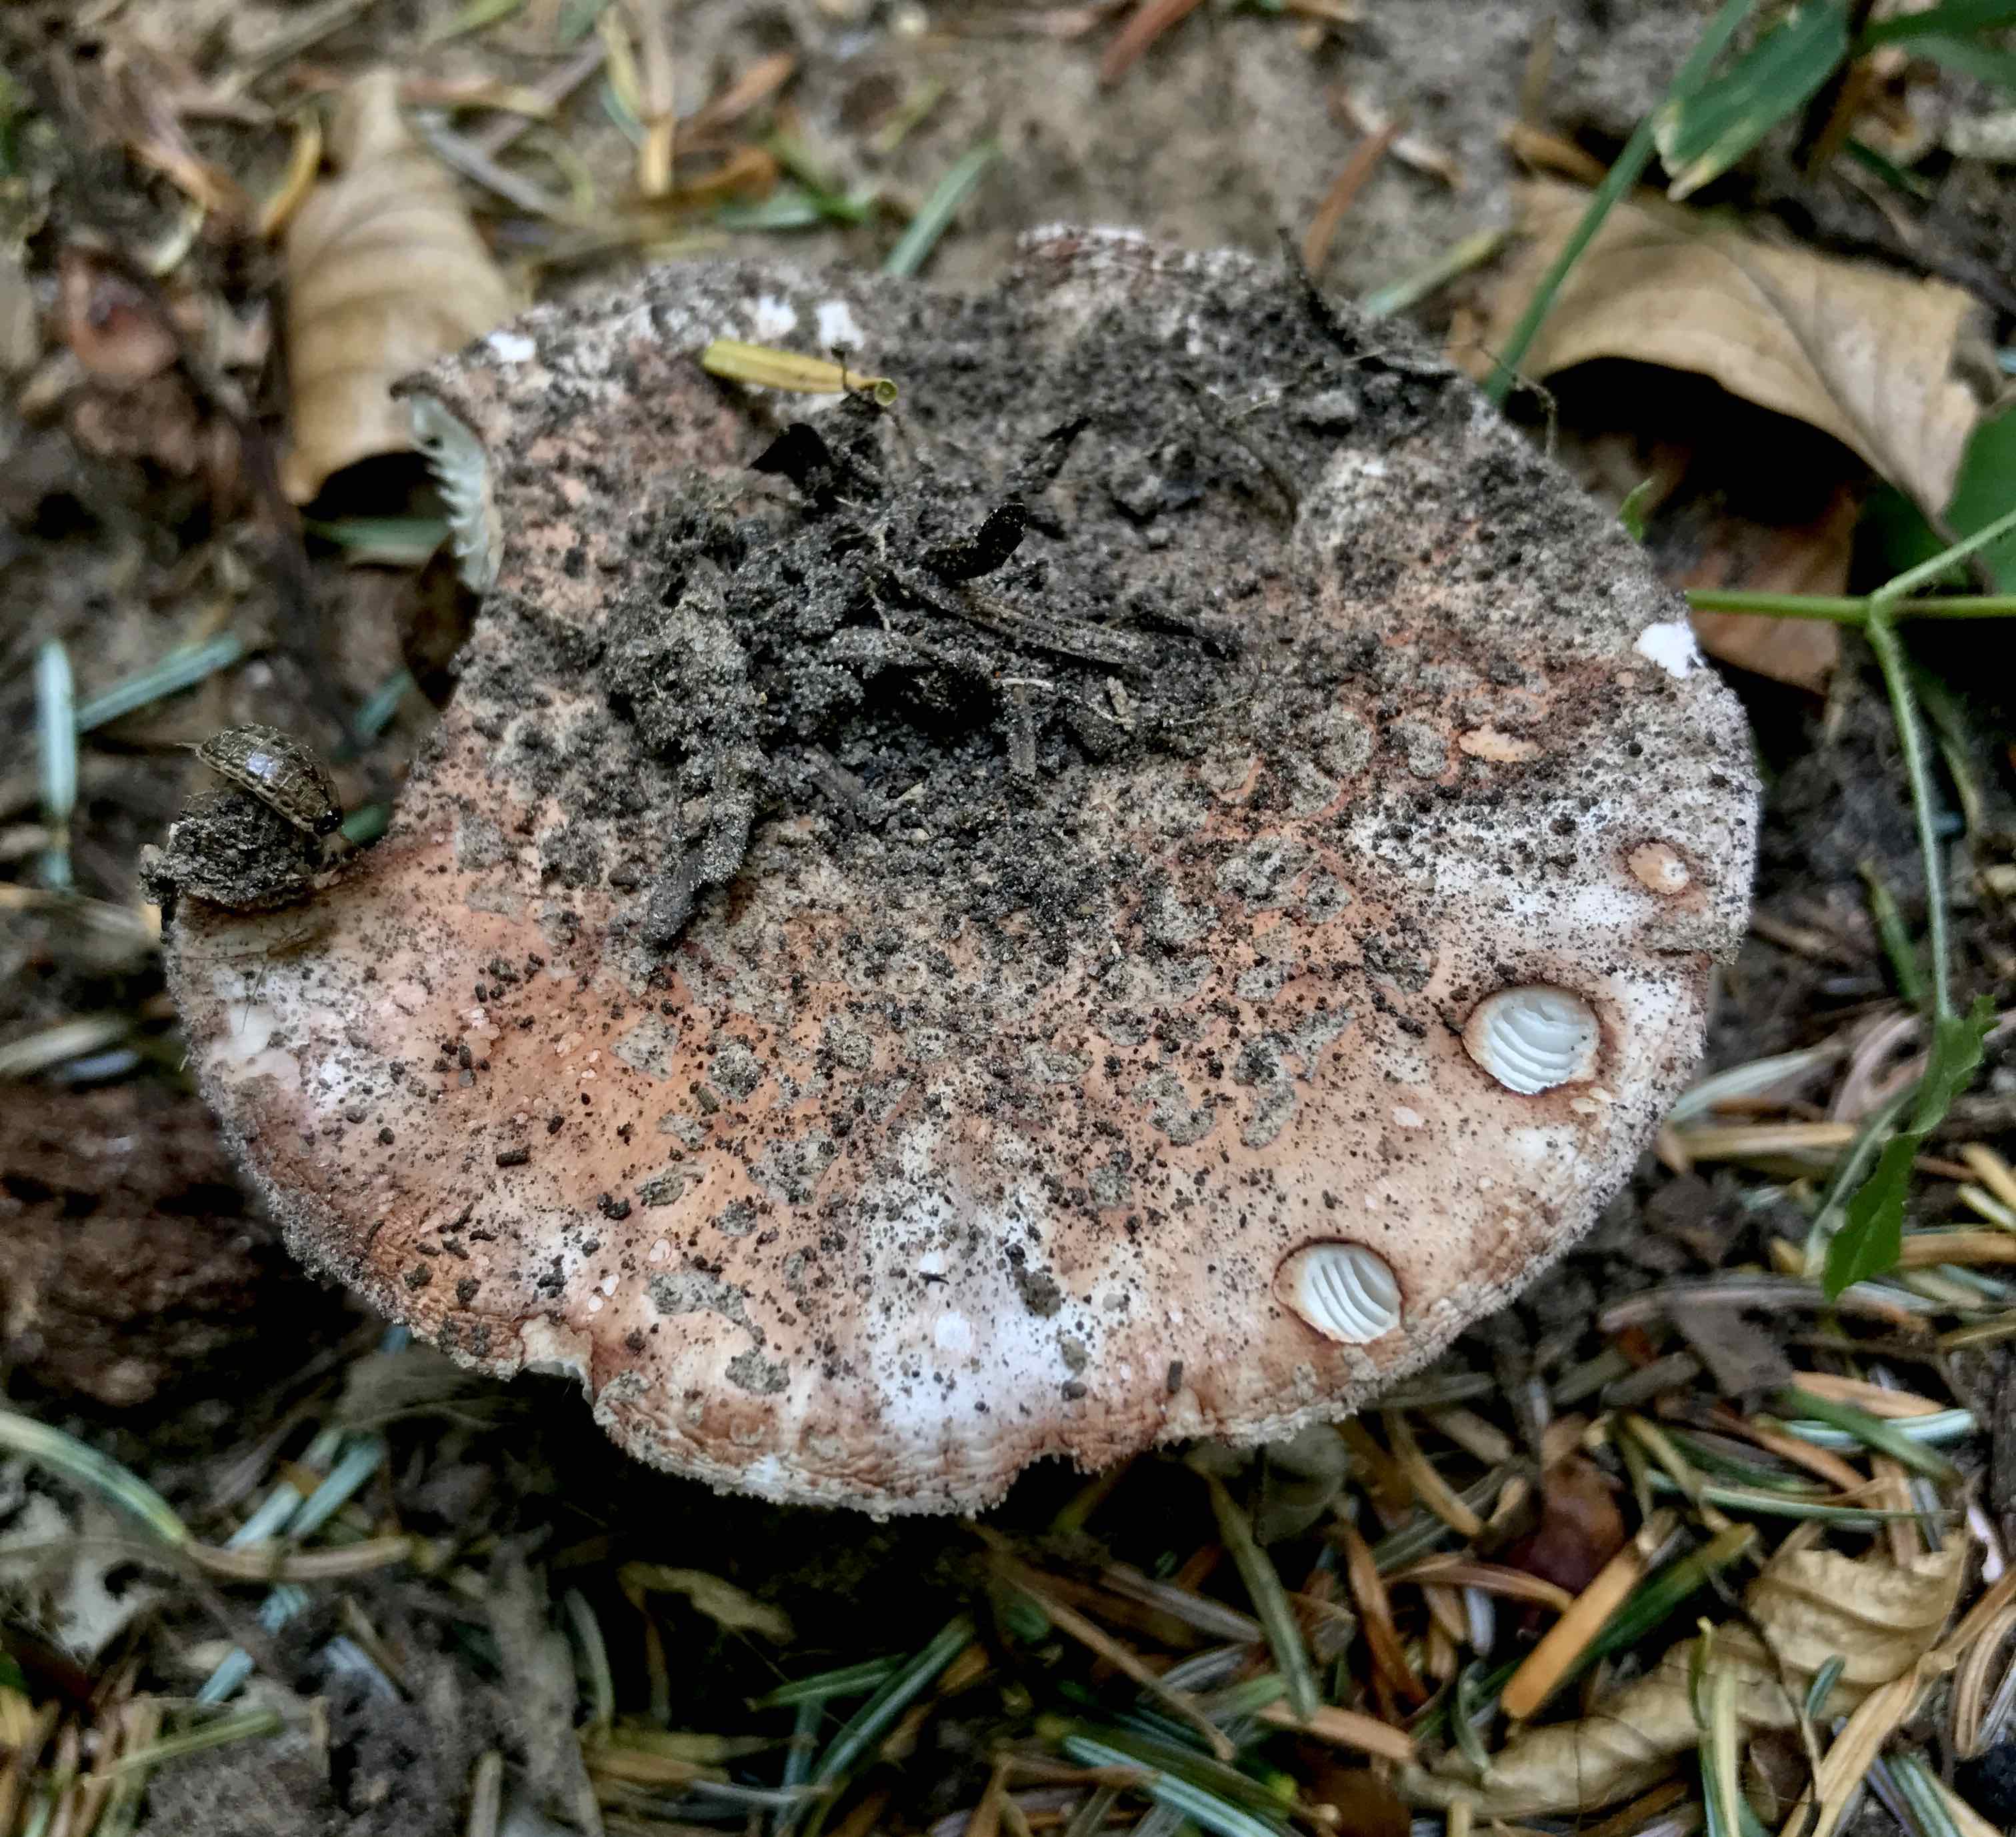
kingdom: Fungi
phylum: Basidiomycota
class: Agaricomycetes
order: Agaricales
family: Amanitaceae
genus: Amanita
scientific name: Amanita rubescens
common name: rødmende fluesvamp
